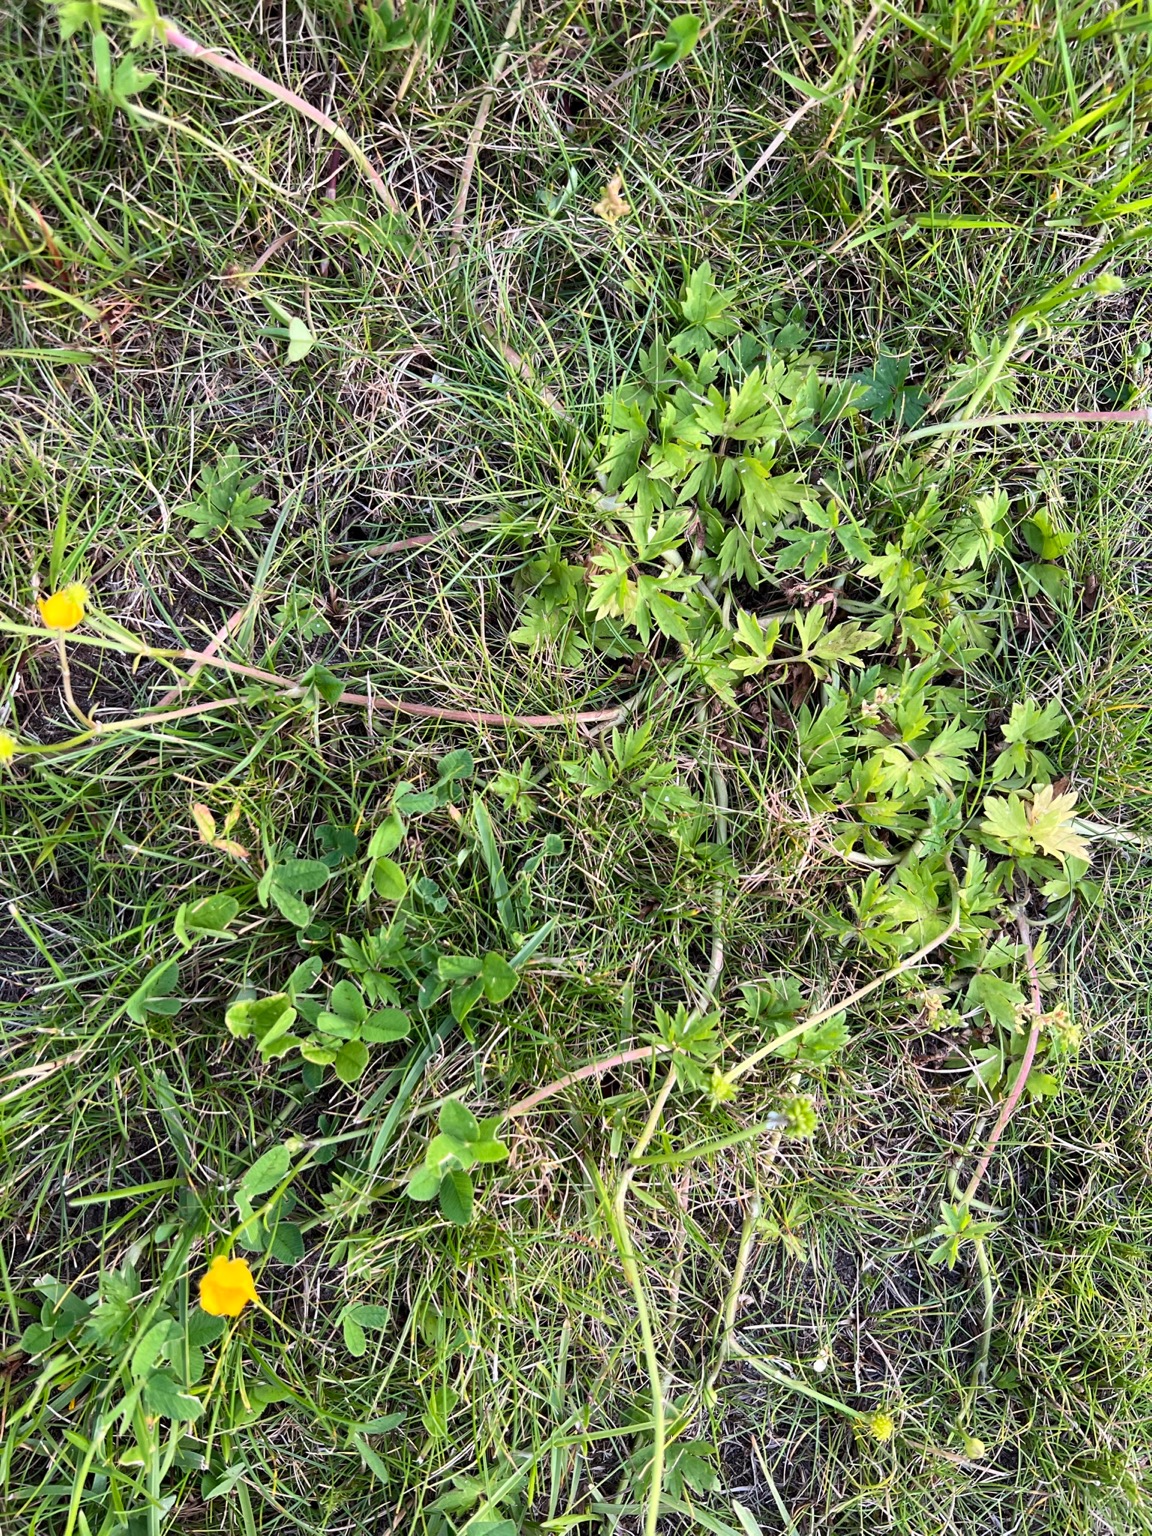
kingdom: Plantae
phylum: Tracheophyta
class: Magnoliopsida
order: Ranunculales
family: Ranunculaceae
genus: Ranunculus
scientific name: Ranunculus repens
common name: Lav ranunkel
